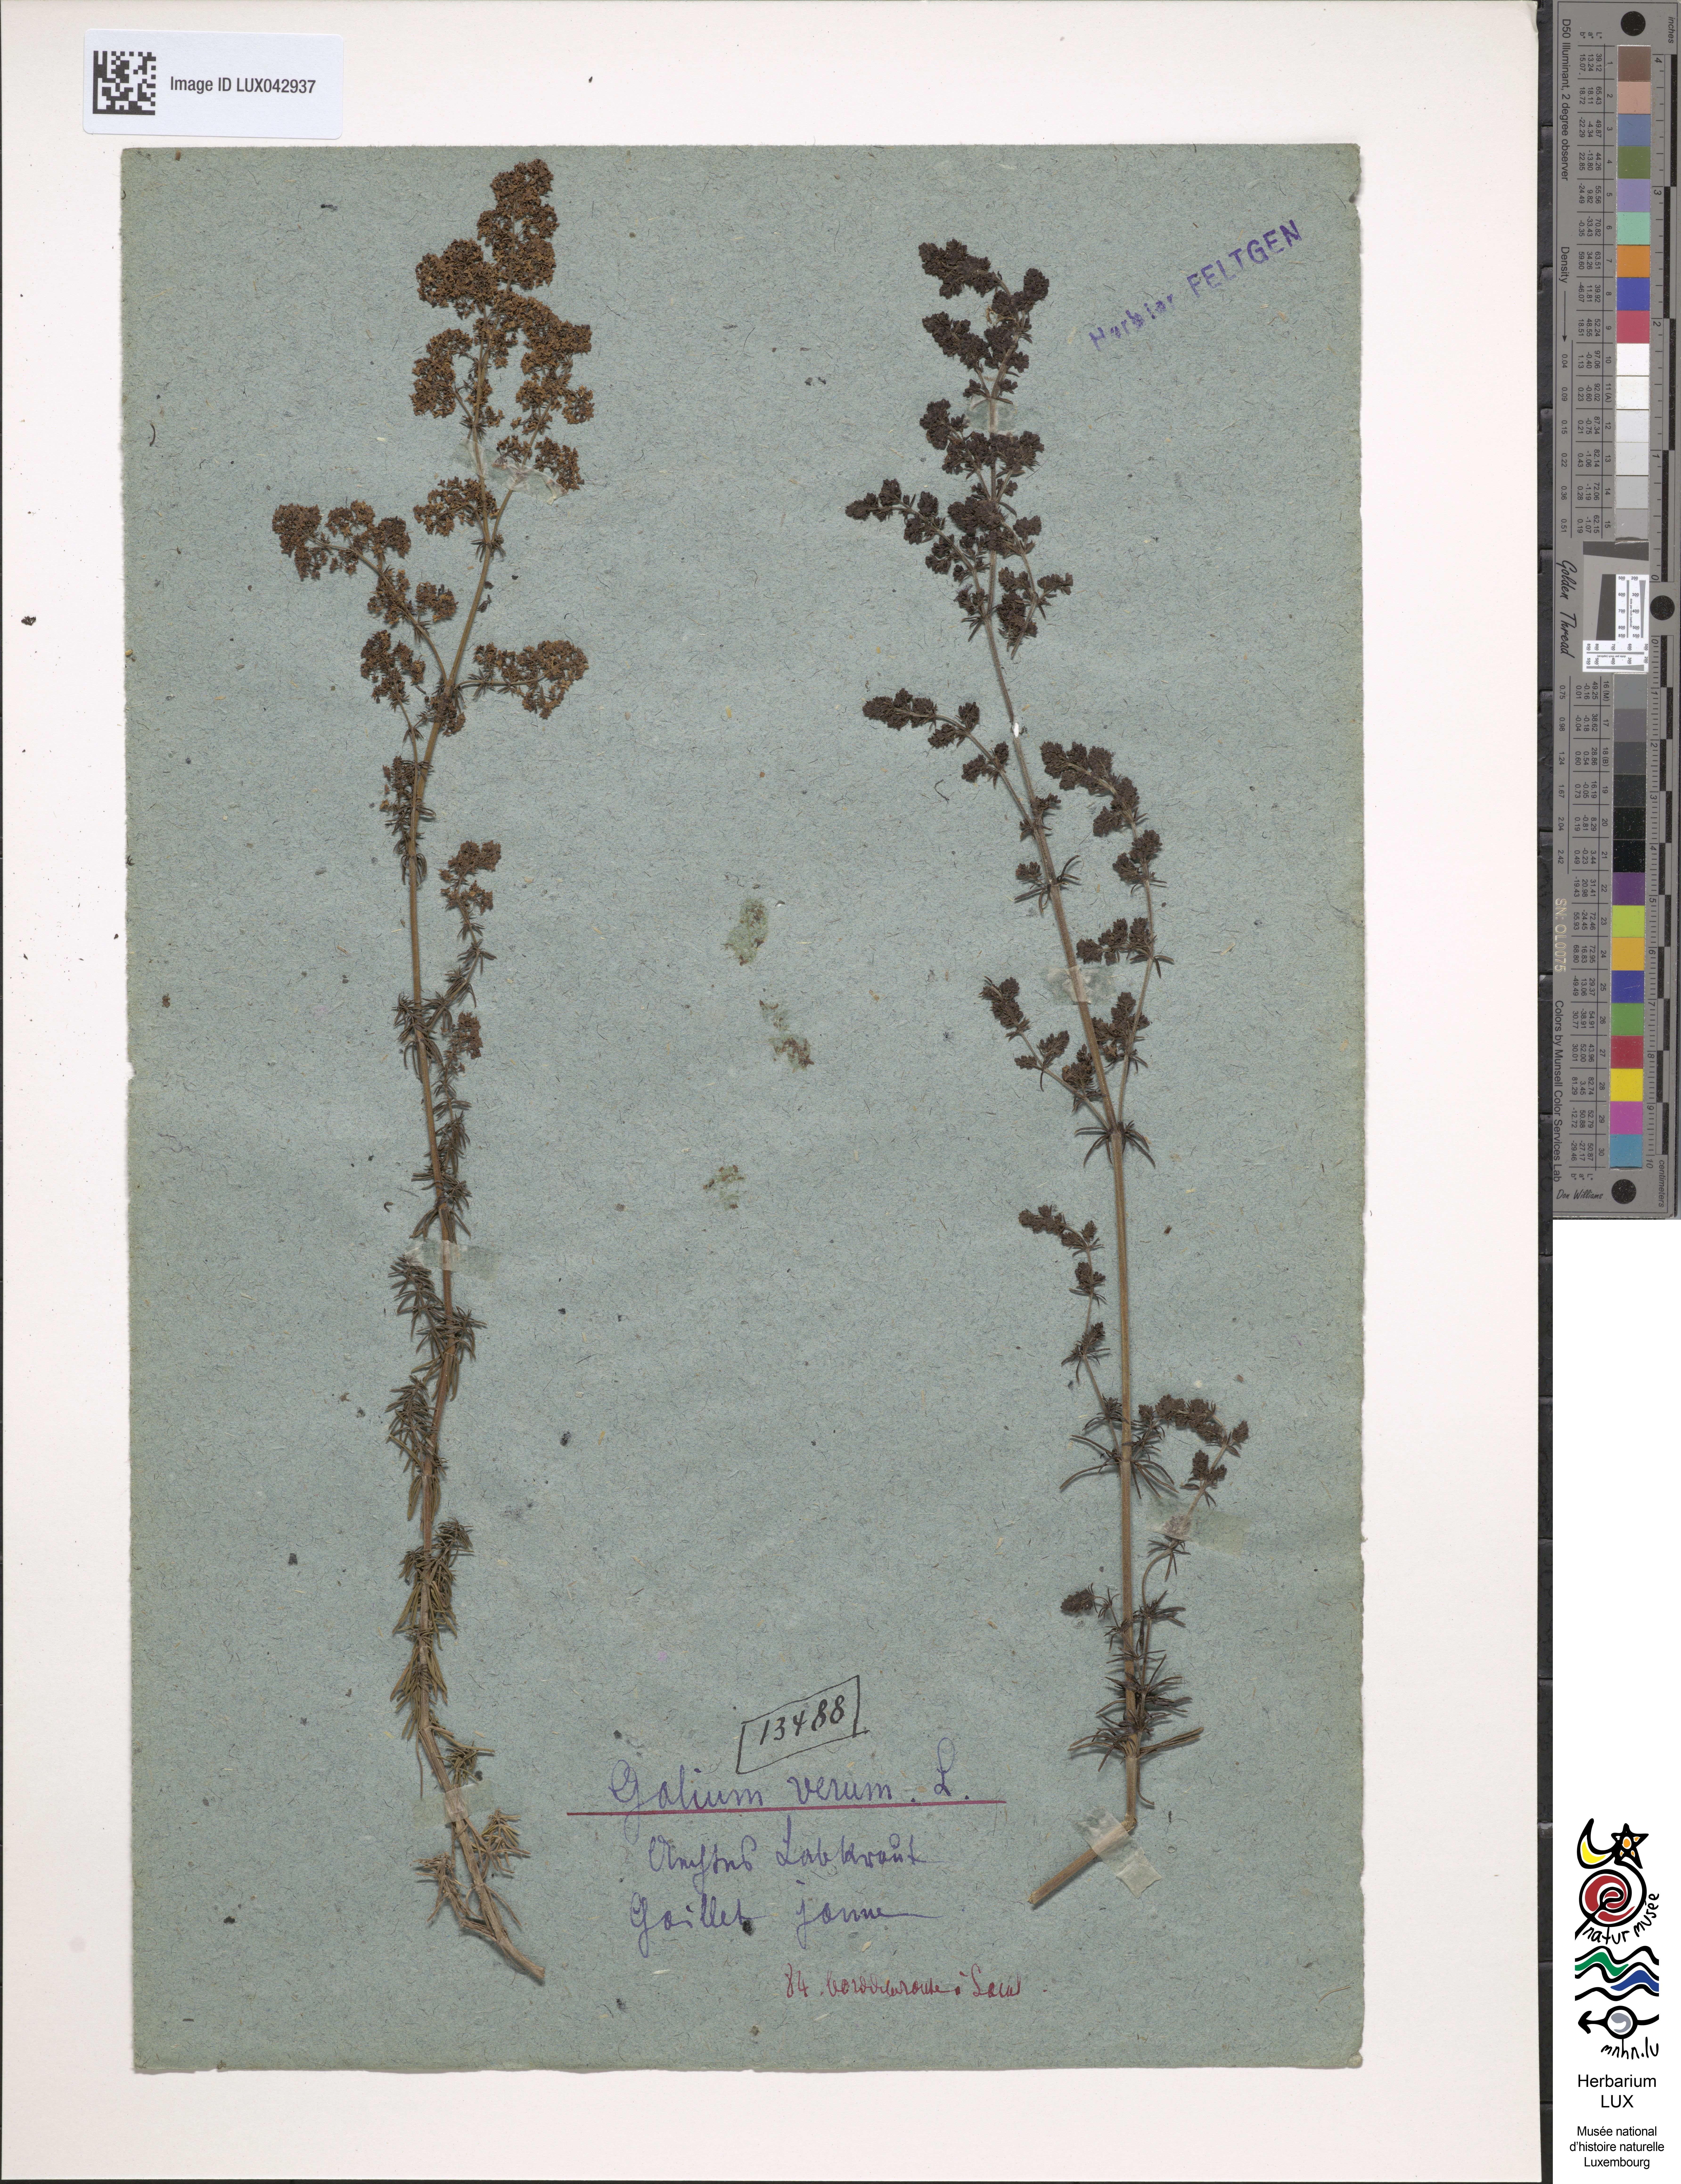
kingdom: Plantae
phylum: Tracheophyta
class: Magnoliopsida
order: Gentianales
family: Rubiaceae
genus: Galium
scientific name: Galium verum
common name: Lady's bedstraw
